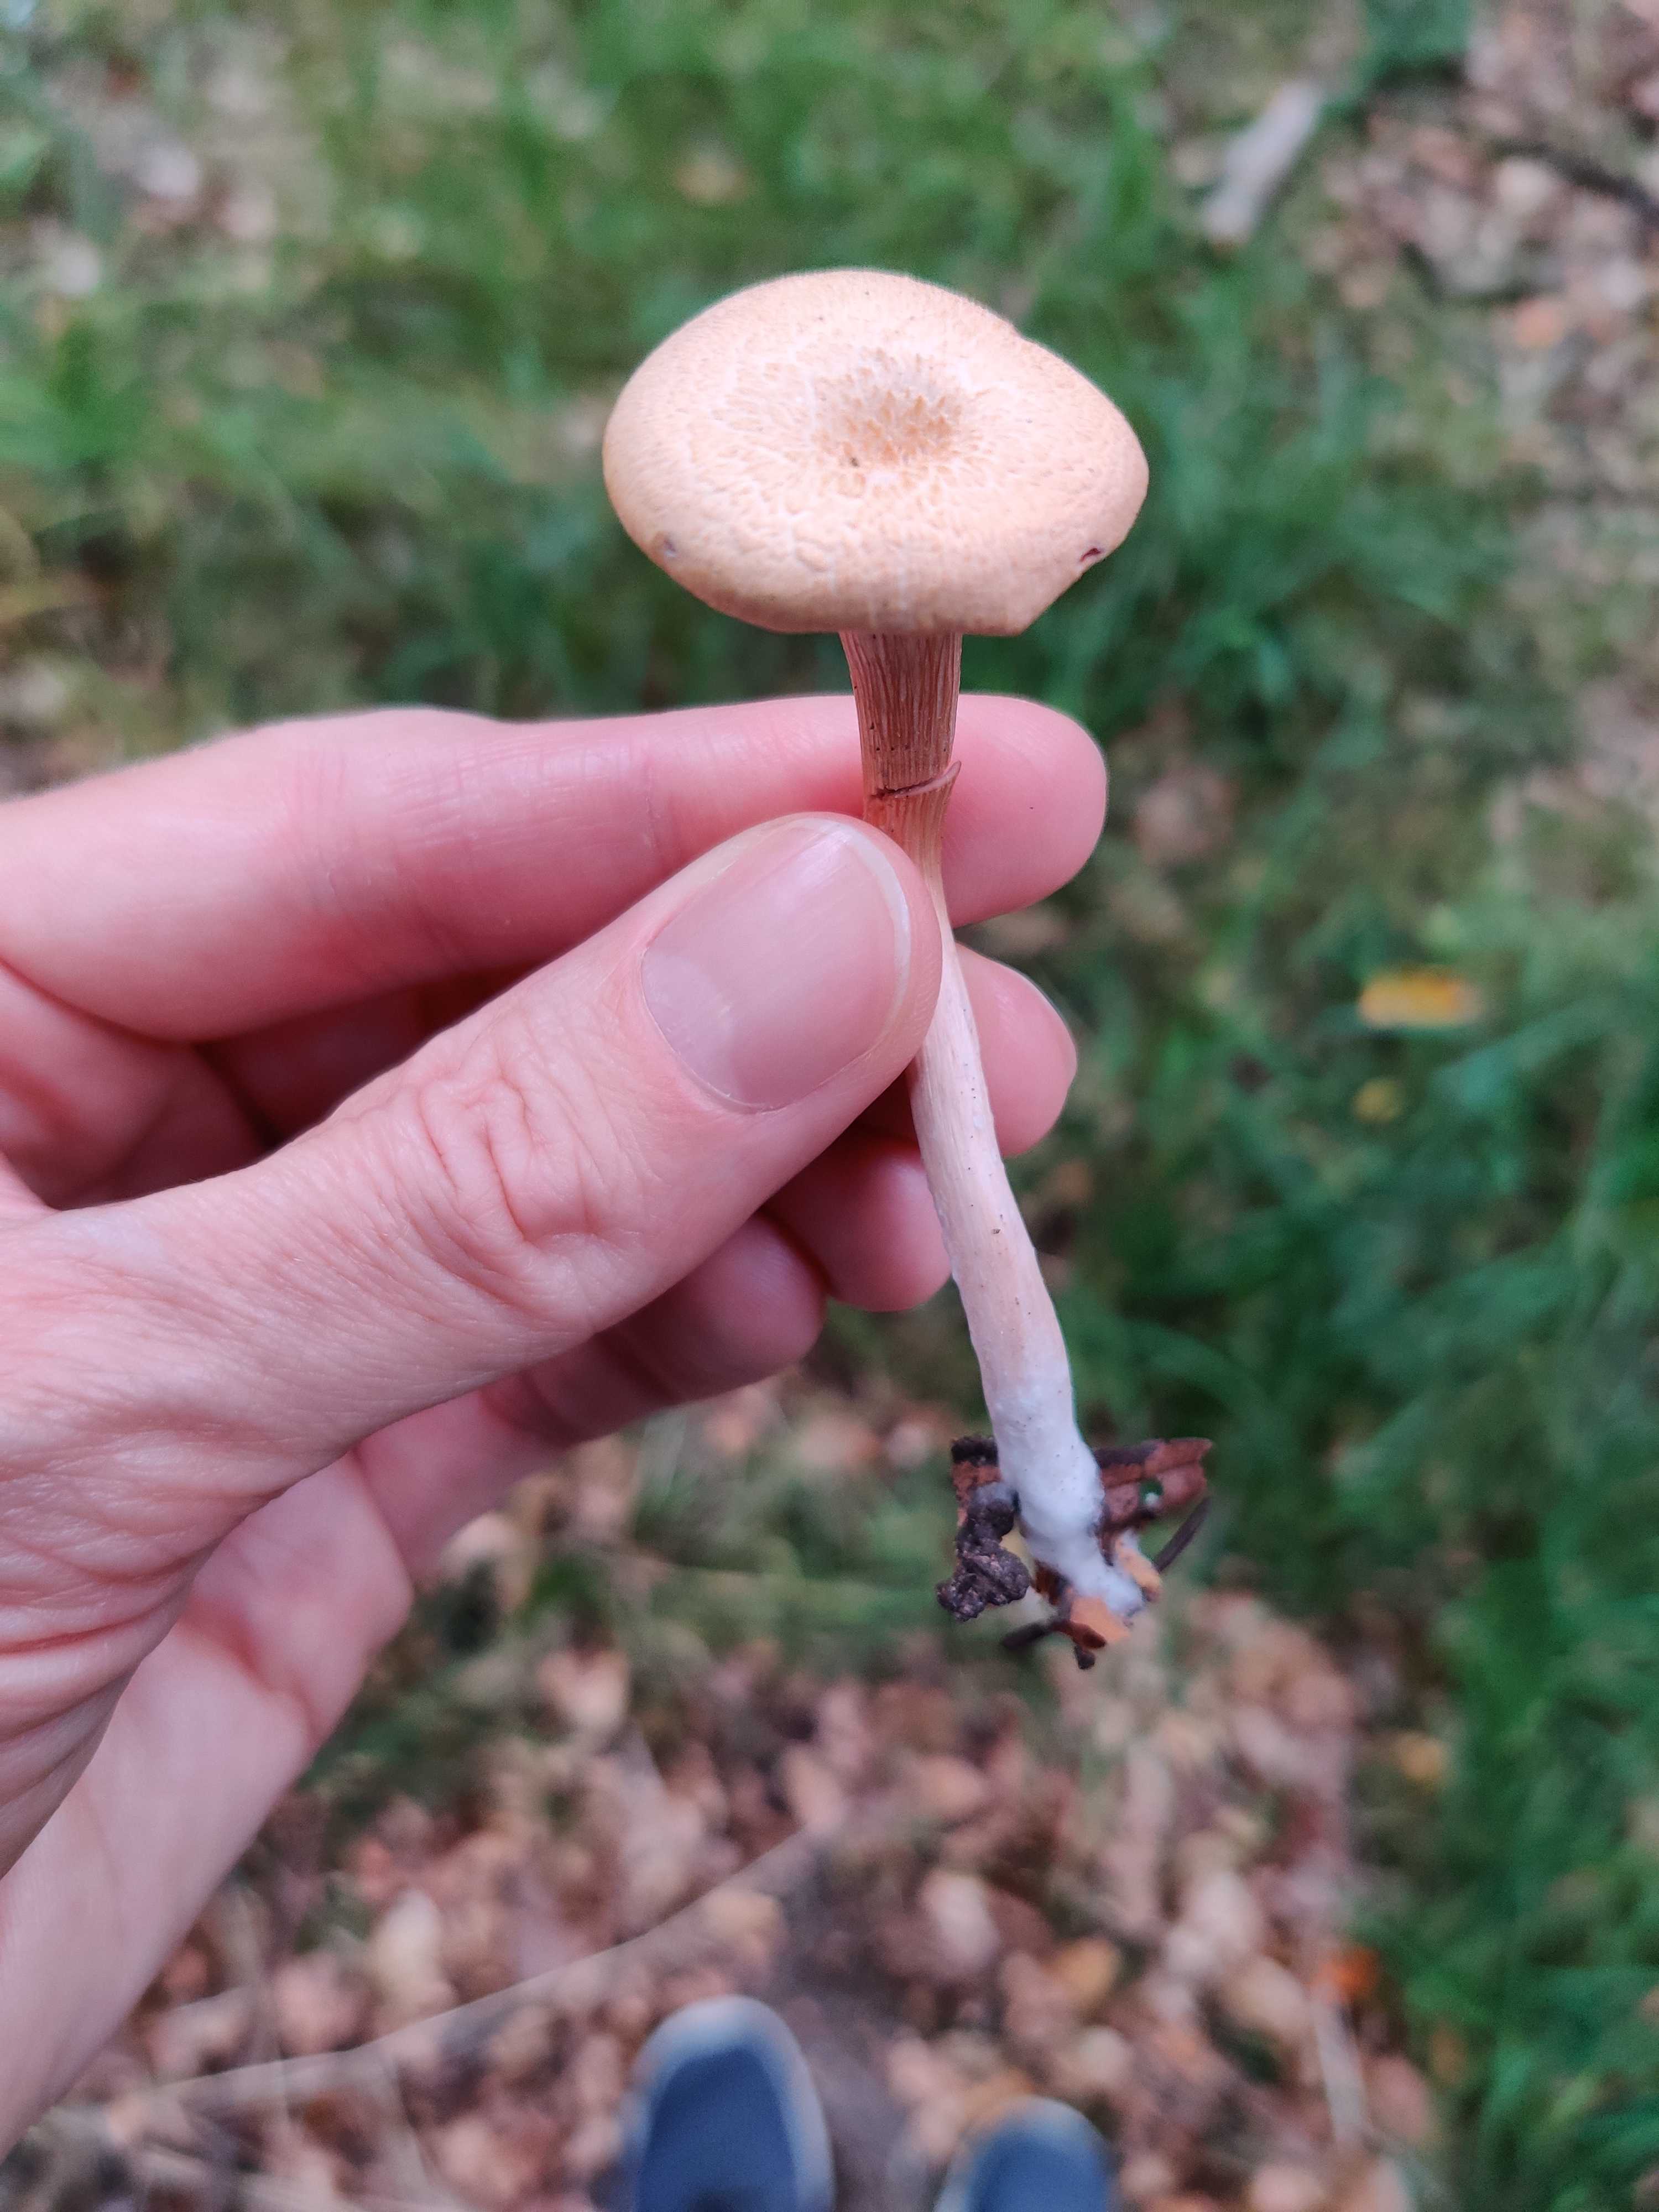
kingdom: Fungi
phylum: Basidiomycota
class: Agaricomycetes
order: Agaricales
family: Hydnangiaceae
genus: Laccaria
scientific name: Laccaria laccata
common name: rød ametysthat
